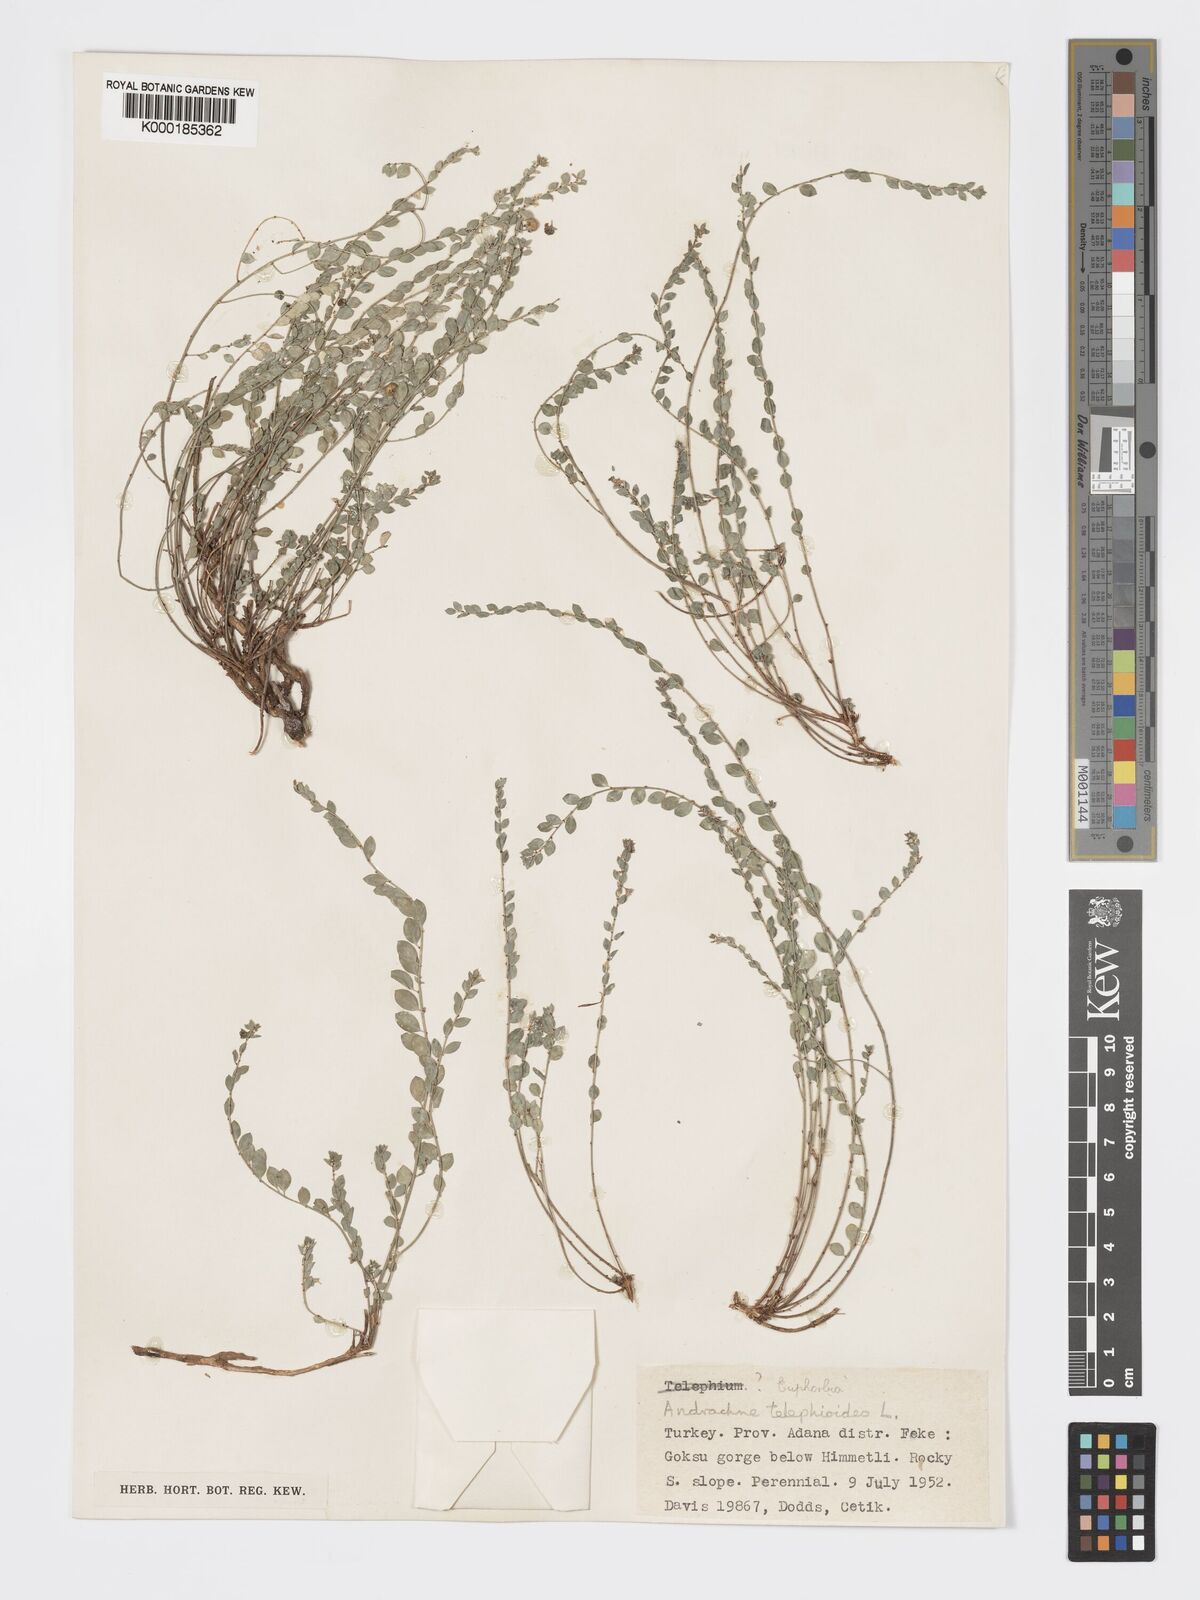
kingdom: Plantae
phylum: Tracheophyta
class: Magnoliopsida
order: Malpighiales
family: Phyllanthaceae
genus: Andrachne
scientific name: Andrachne telephioides
